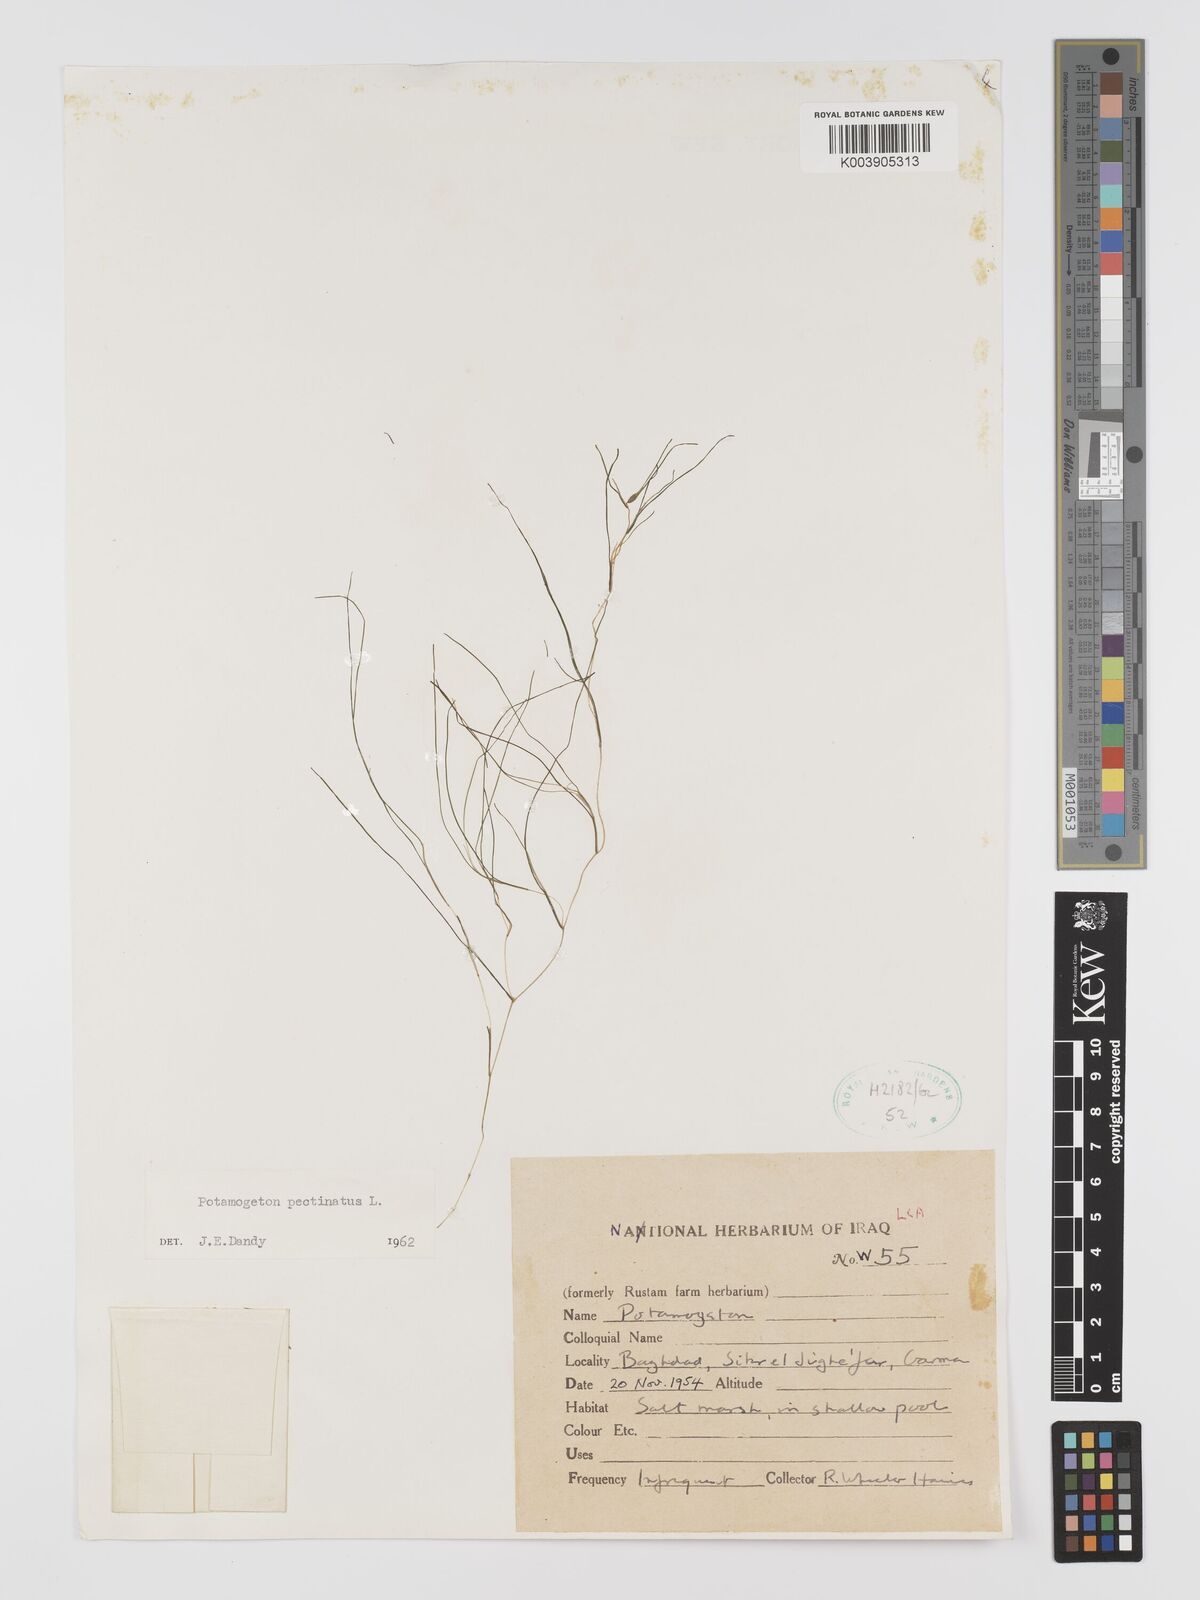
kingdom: Plantae
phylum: Tracheophyta
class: Liliopsida
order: Alismatales
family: Potamogetonaceae
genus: Stuckenia
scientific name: Stuckenia pectinata
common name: Sago pondweed
